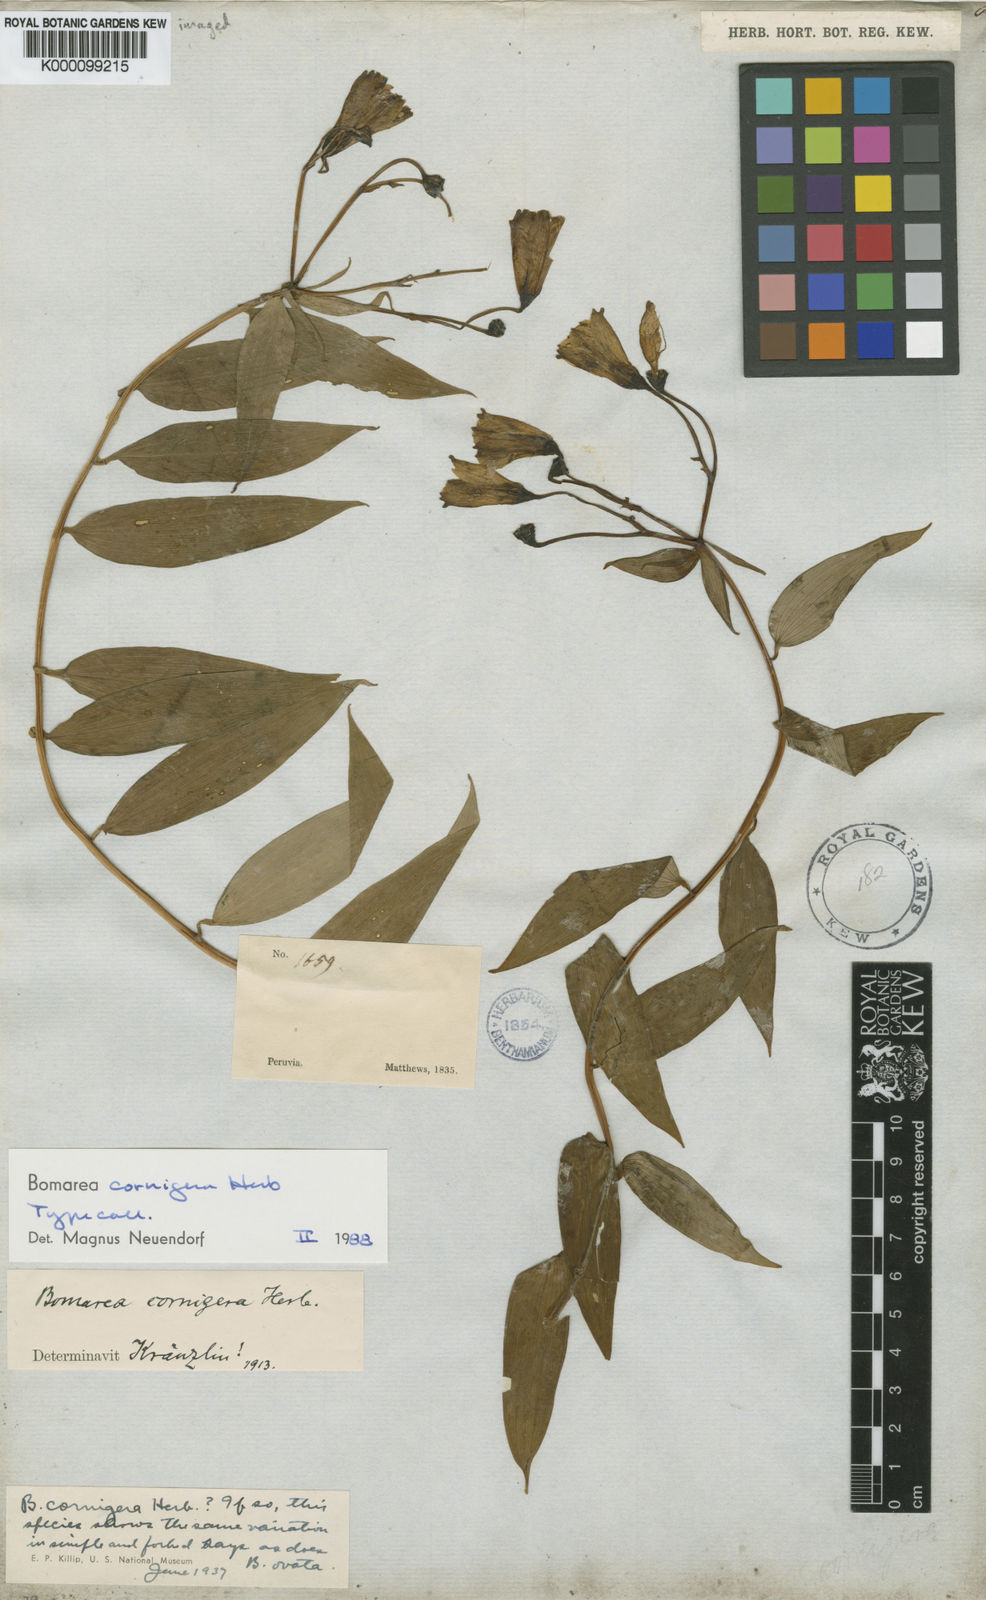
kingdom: Plantae
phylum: Tracheophyta
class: Liliopsida
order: Liliales
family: Alstroemeriaceae
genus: Bomarea
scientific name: Bomarea cornigera
